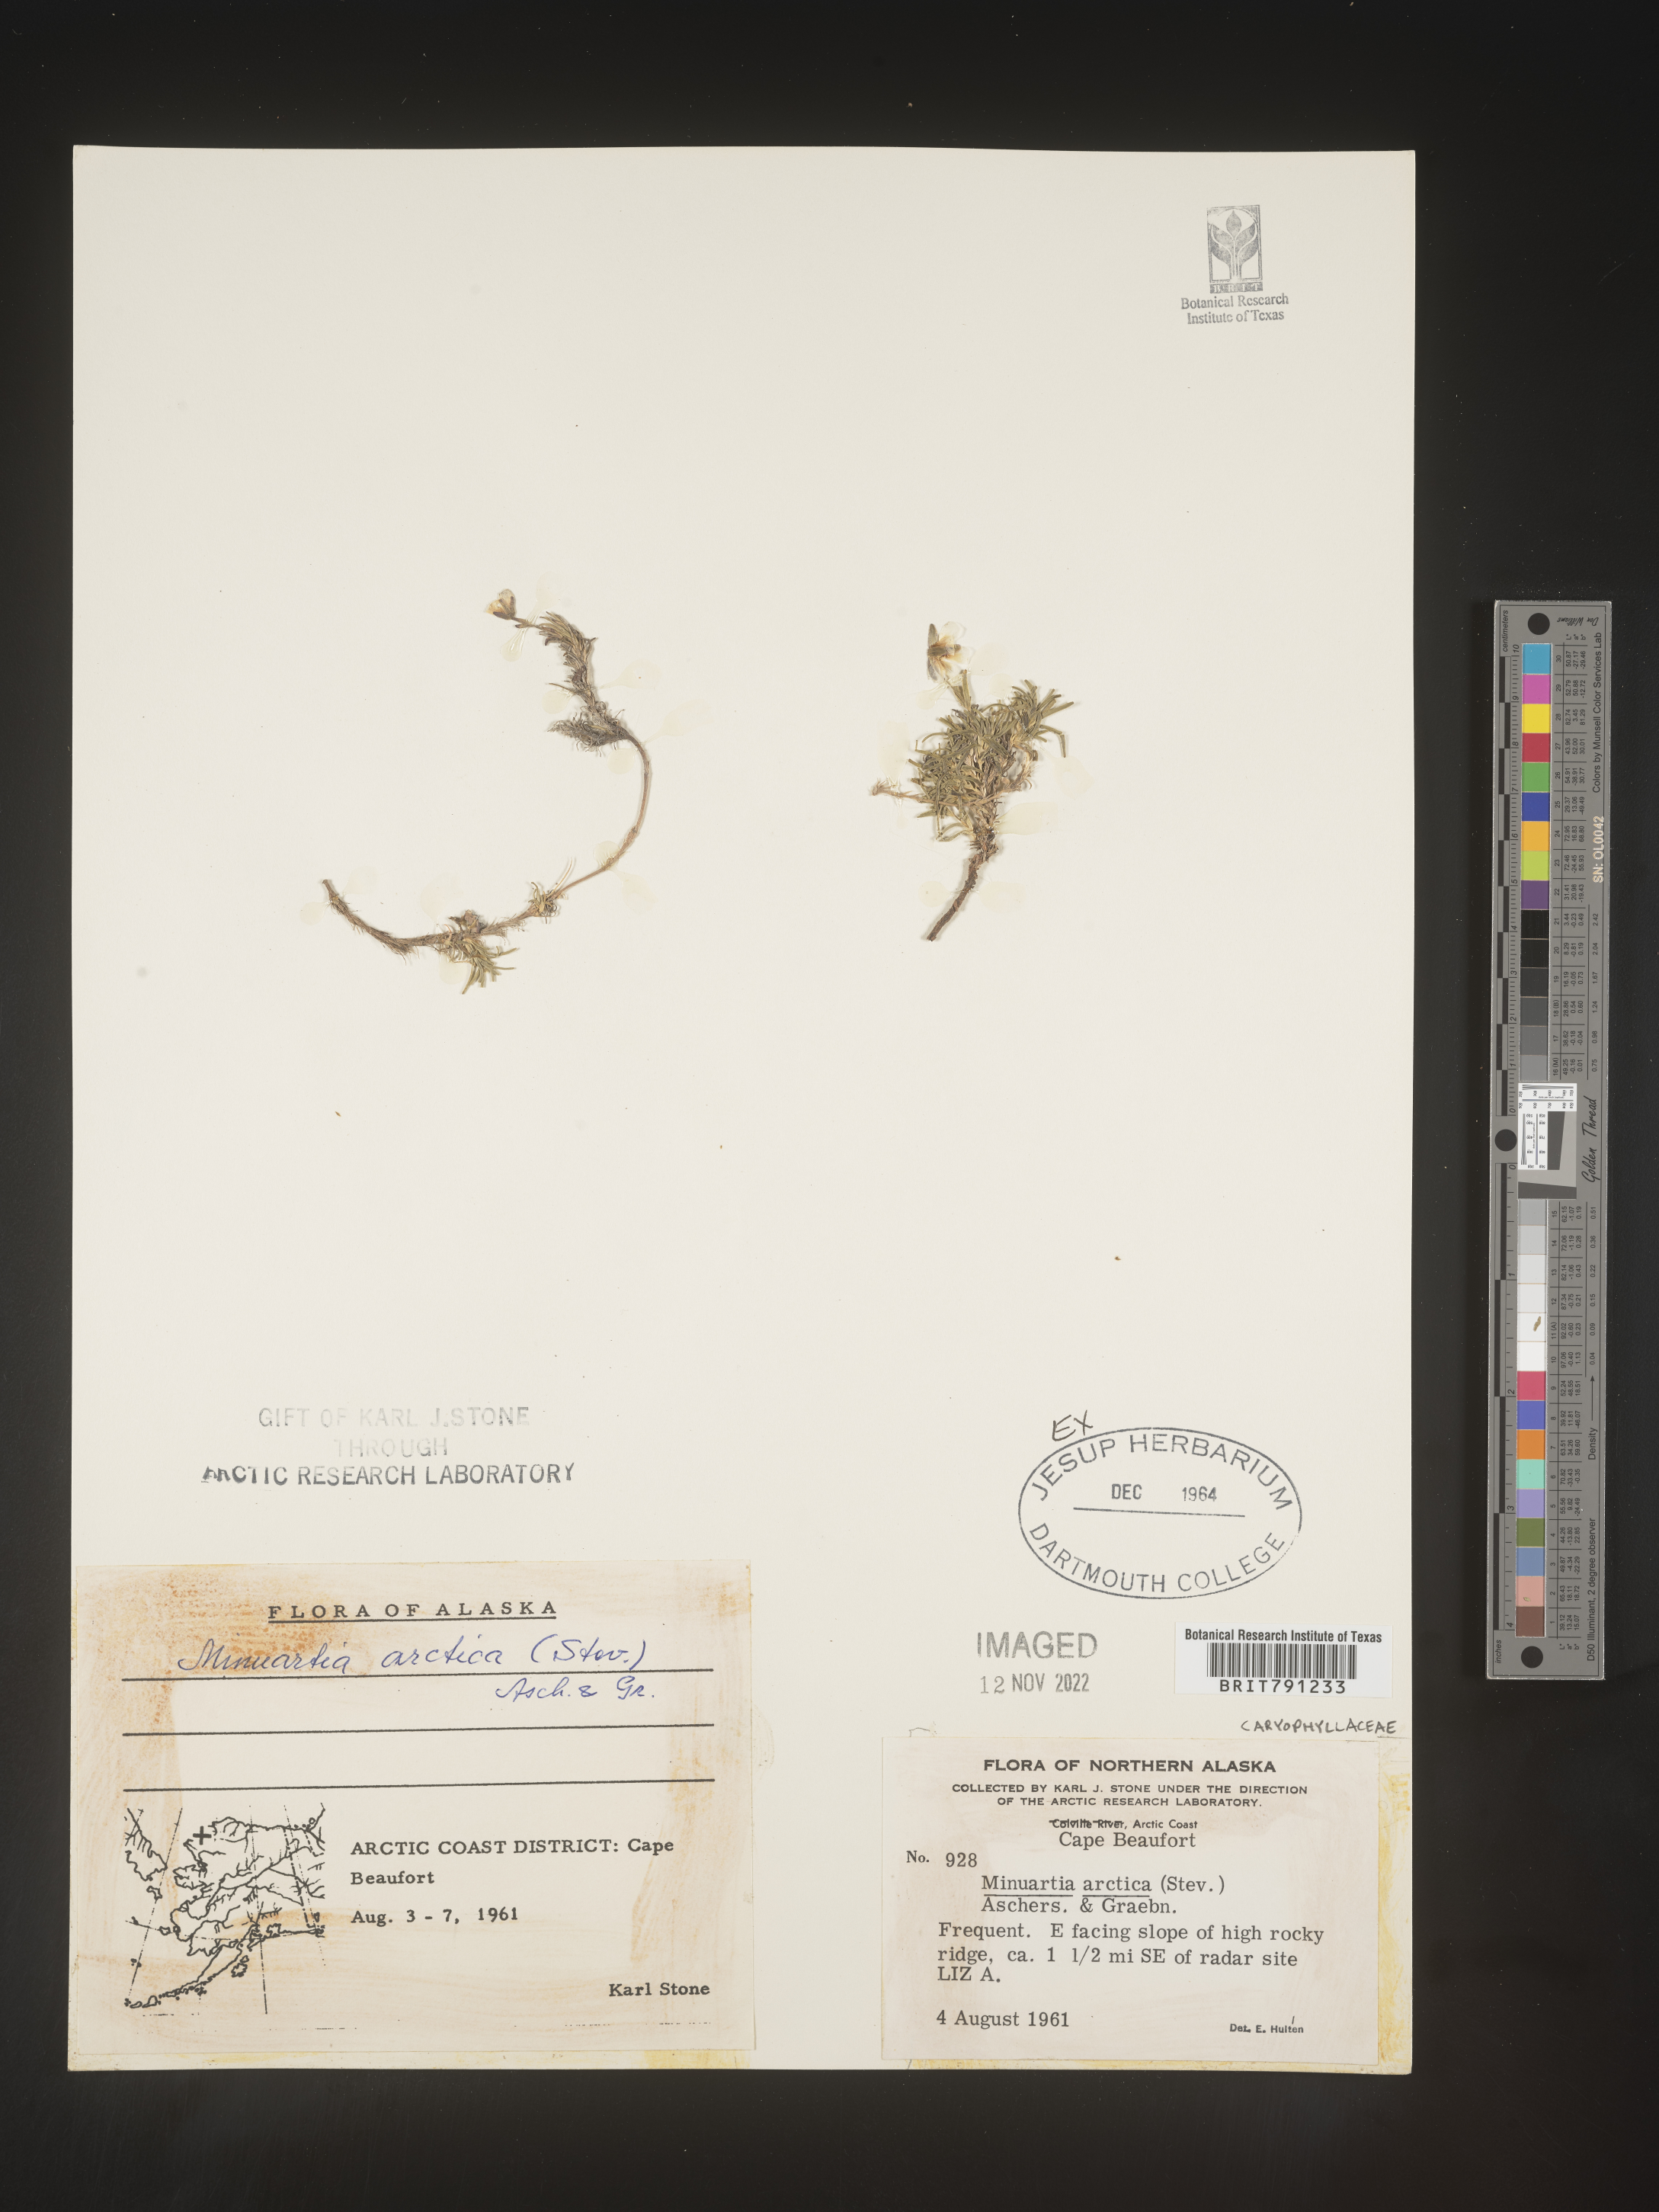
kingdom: Plantae
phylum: Tracheophyta
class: Magnoliopsida
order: Caryophyllales
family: Caryophyllaceae
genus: Minuartia
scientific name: Minuartia
